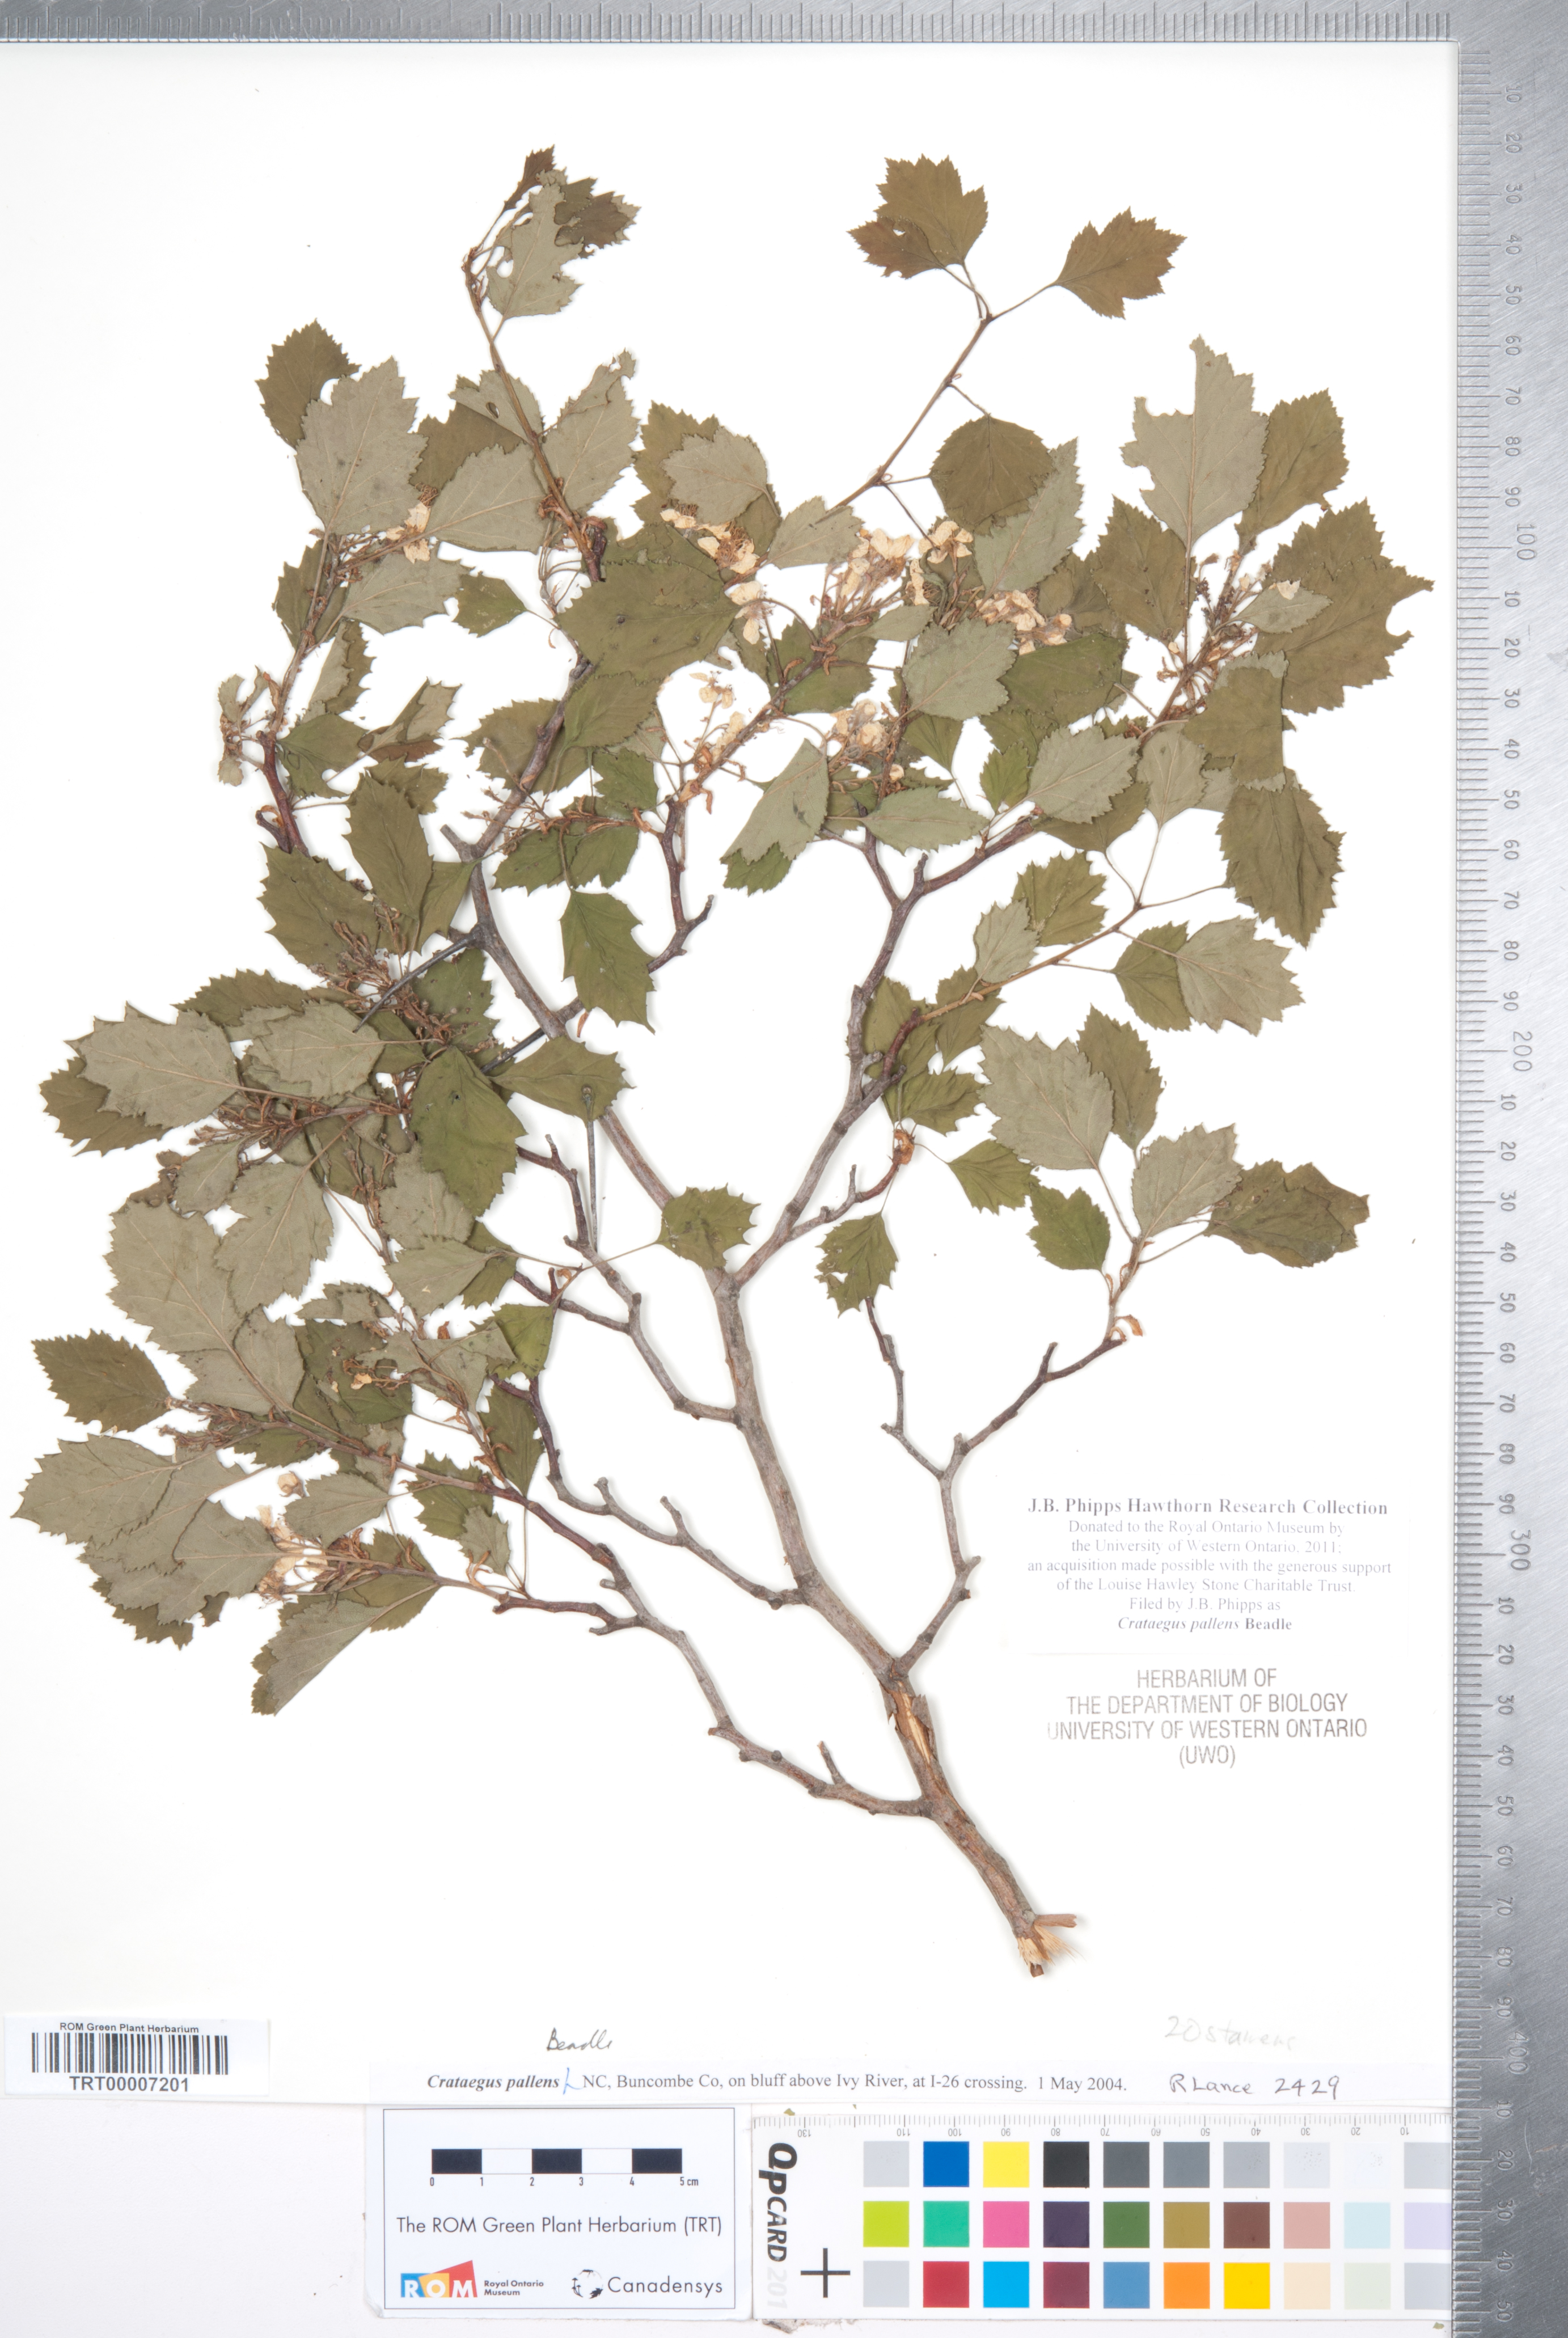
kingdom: Plantae
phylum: Tracheophyta
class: Magnoliopsida
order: Rosales
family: Rosaceae
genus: Crataegus
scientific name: Crataegus pulcherrima
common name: Beautiful hawthorn
